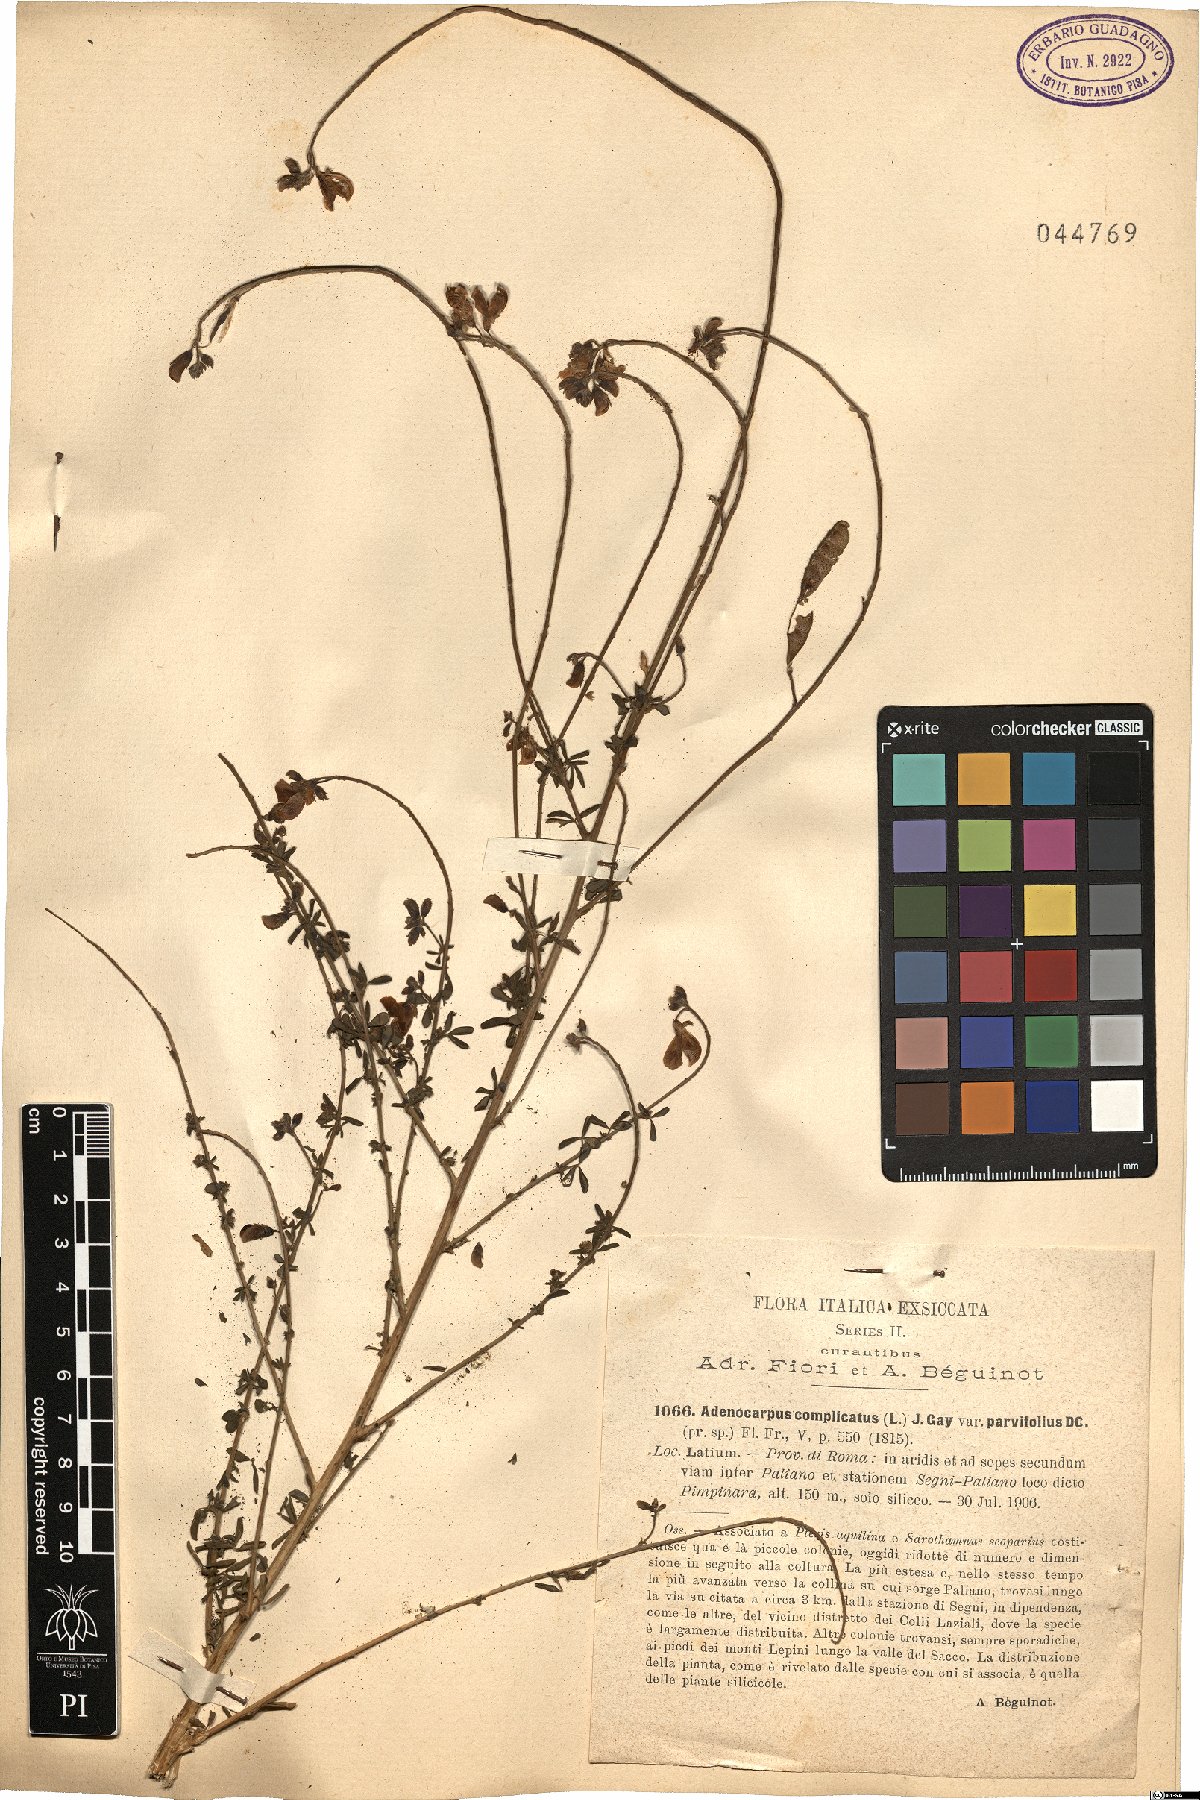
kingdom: Plantae
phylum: Tracheophyta
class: Magnoliopsida
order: Fabales
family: Fabaceae
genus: Adenocarpus
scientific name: Adenocarpus complicatus
